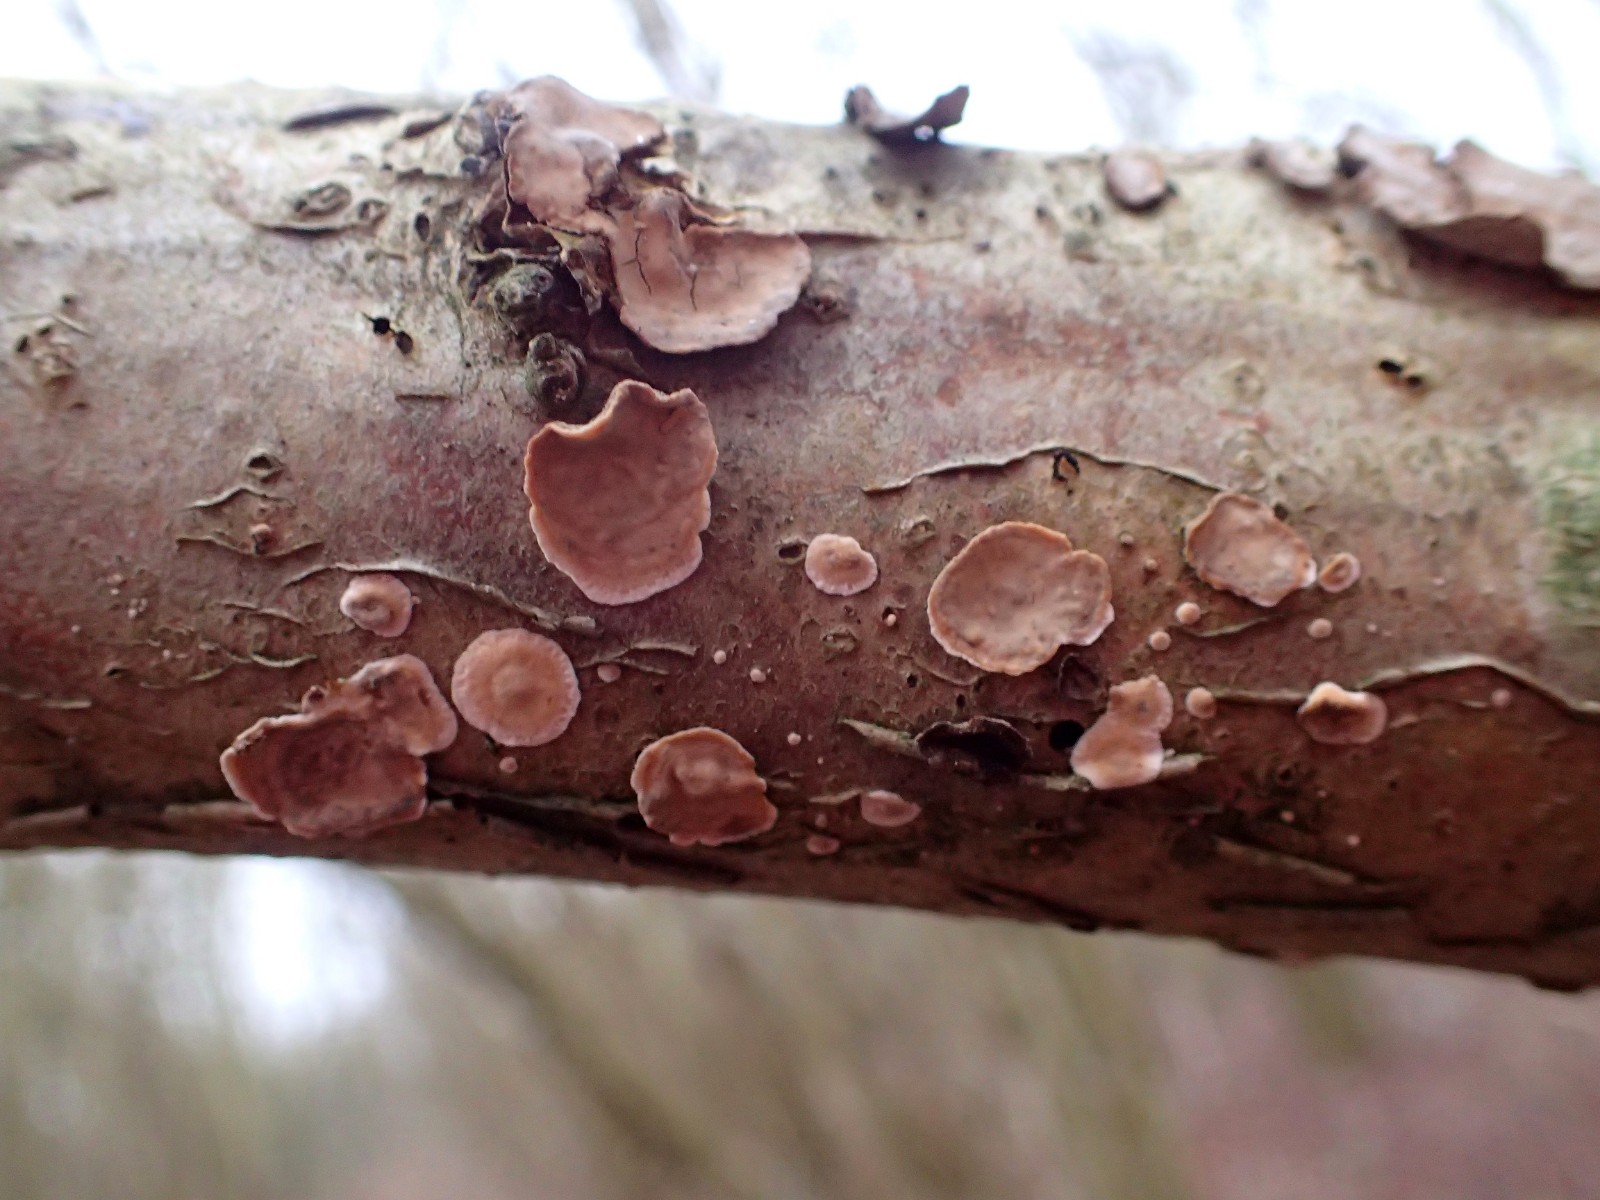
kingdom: Fungi
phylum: Basidiomycota
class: Agaricomycetes
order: Russulales
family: Stereaceae
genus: Stereum
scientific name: Stereum rugosum
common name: rynket lædersvamp
